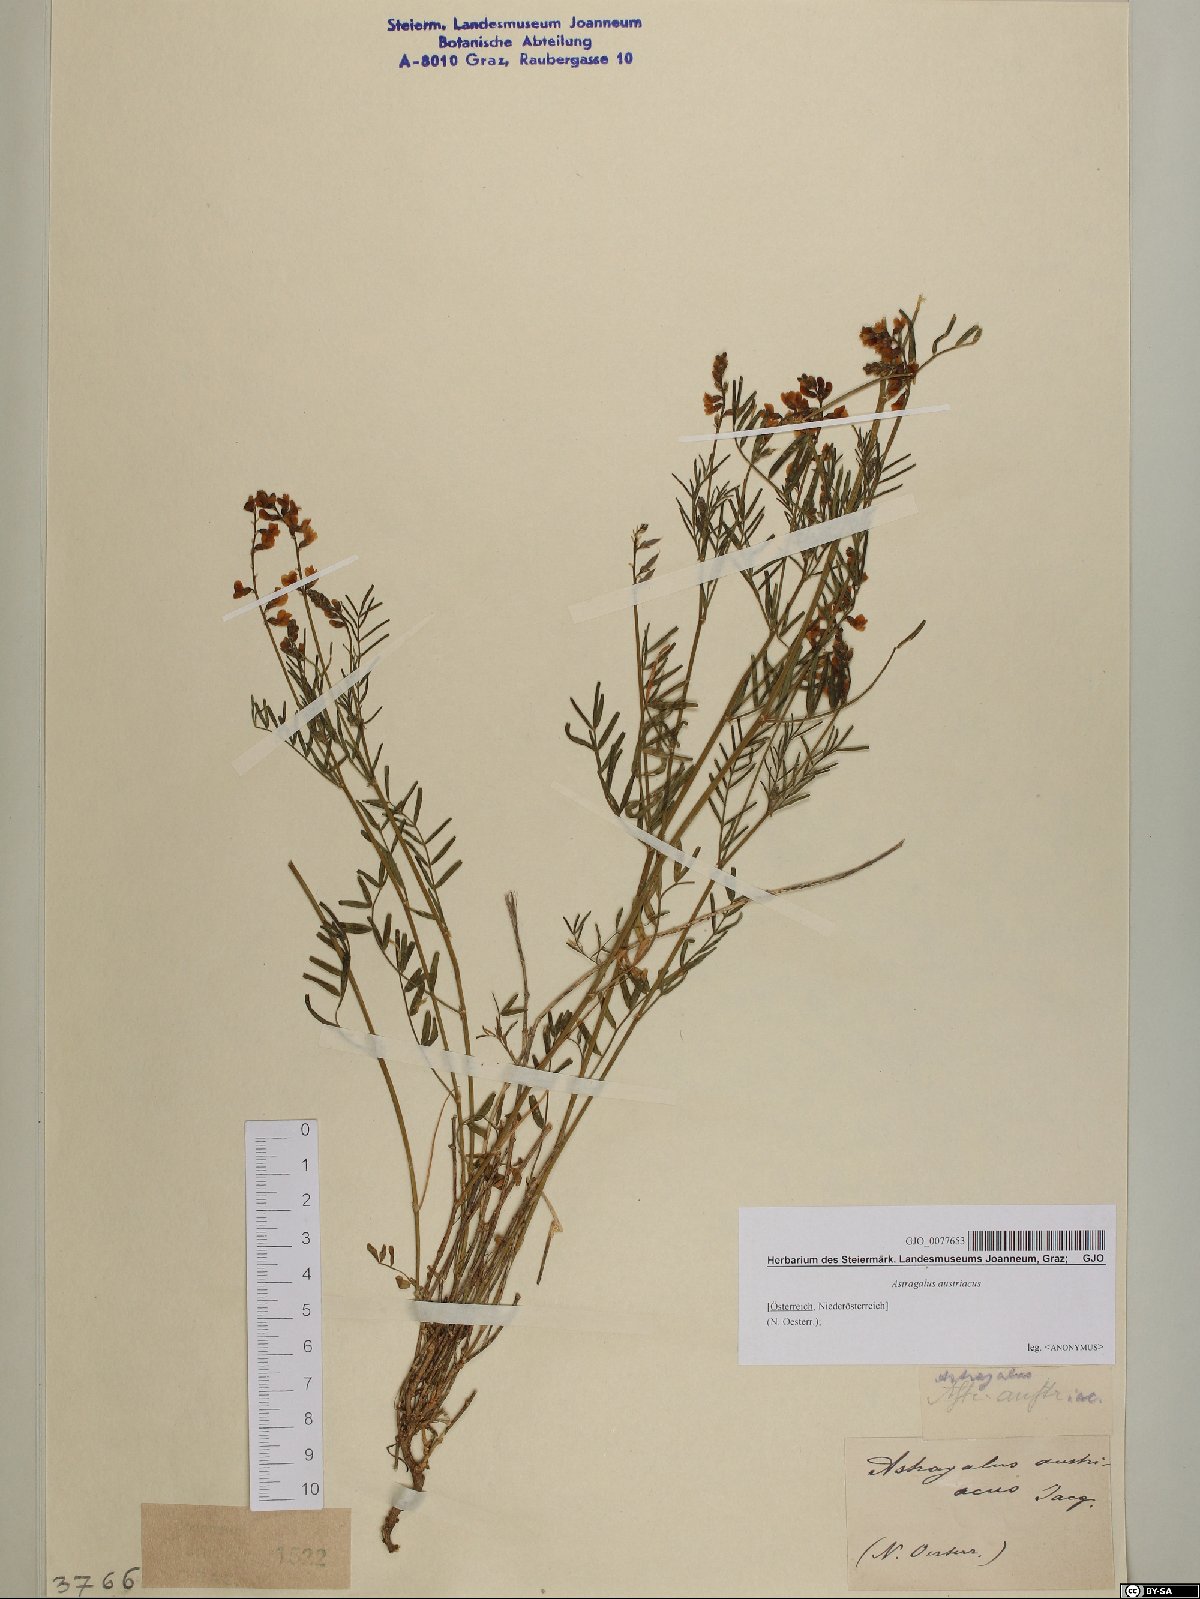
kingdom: Plantae
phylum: Tracheophyta
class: Magnoliopsida
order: Fabales
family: Fabaceae
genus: Astragalus
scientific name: Astragalus austriacus
